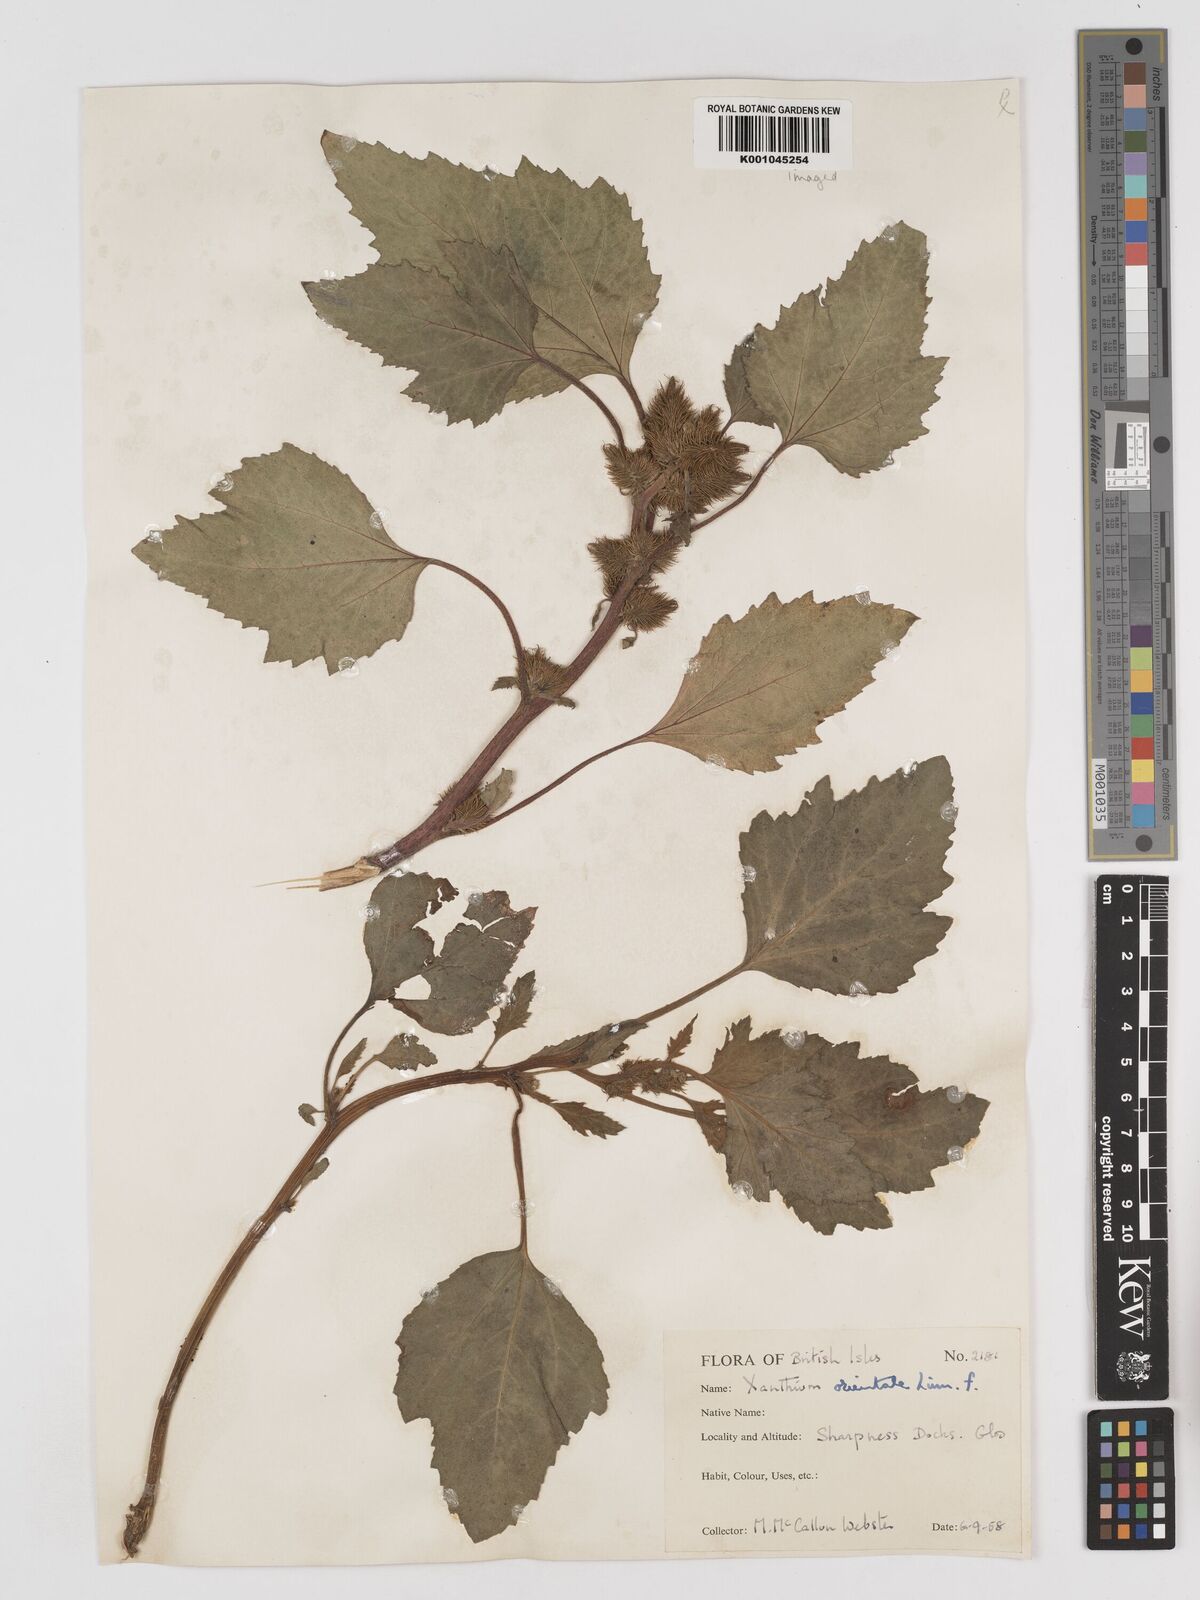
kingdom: Plantae
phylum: Tracheophyta
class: Magnoliopsida
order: Asterales
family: Asteraceae
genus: Xanthium
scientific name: Xanthium strumarium
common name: Rough cocklebur
